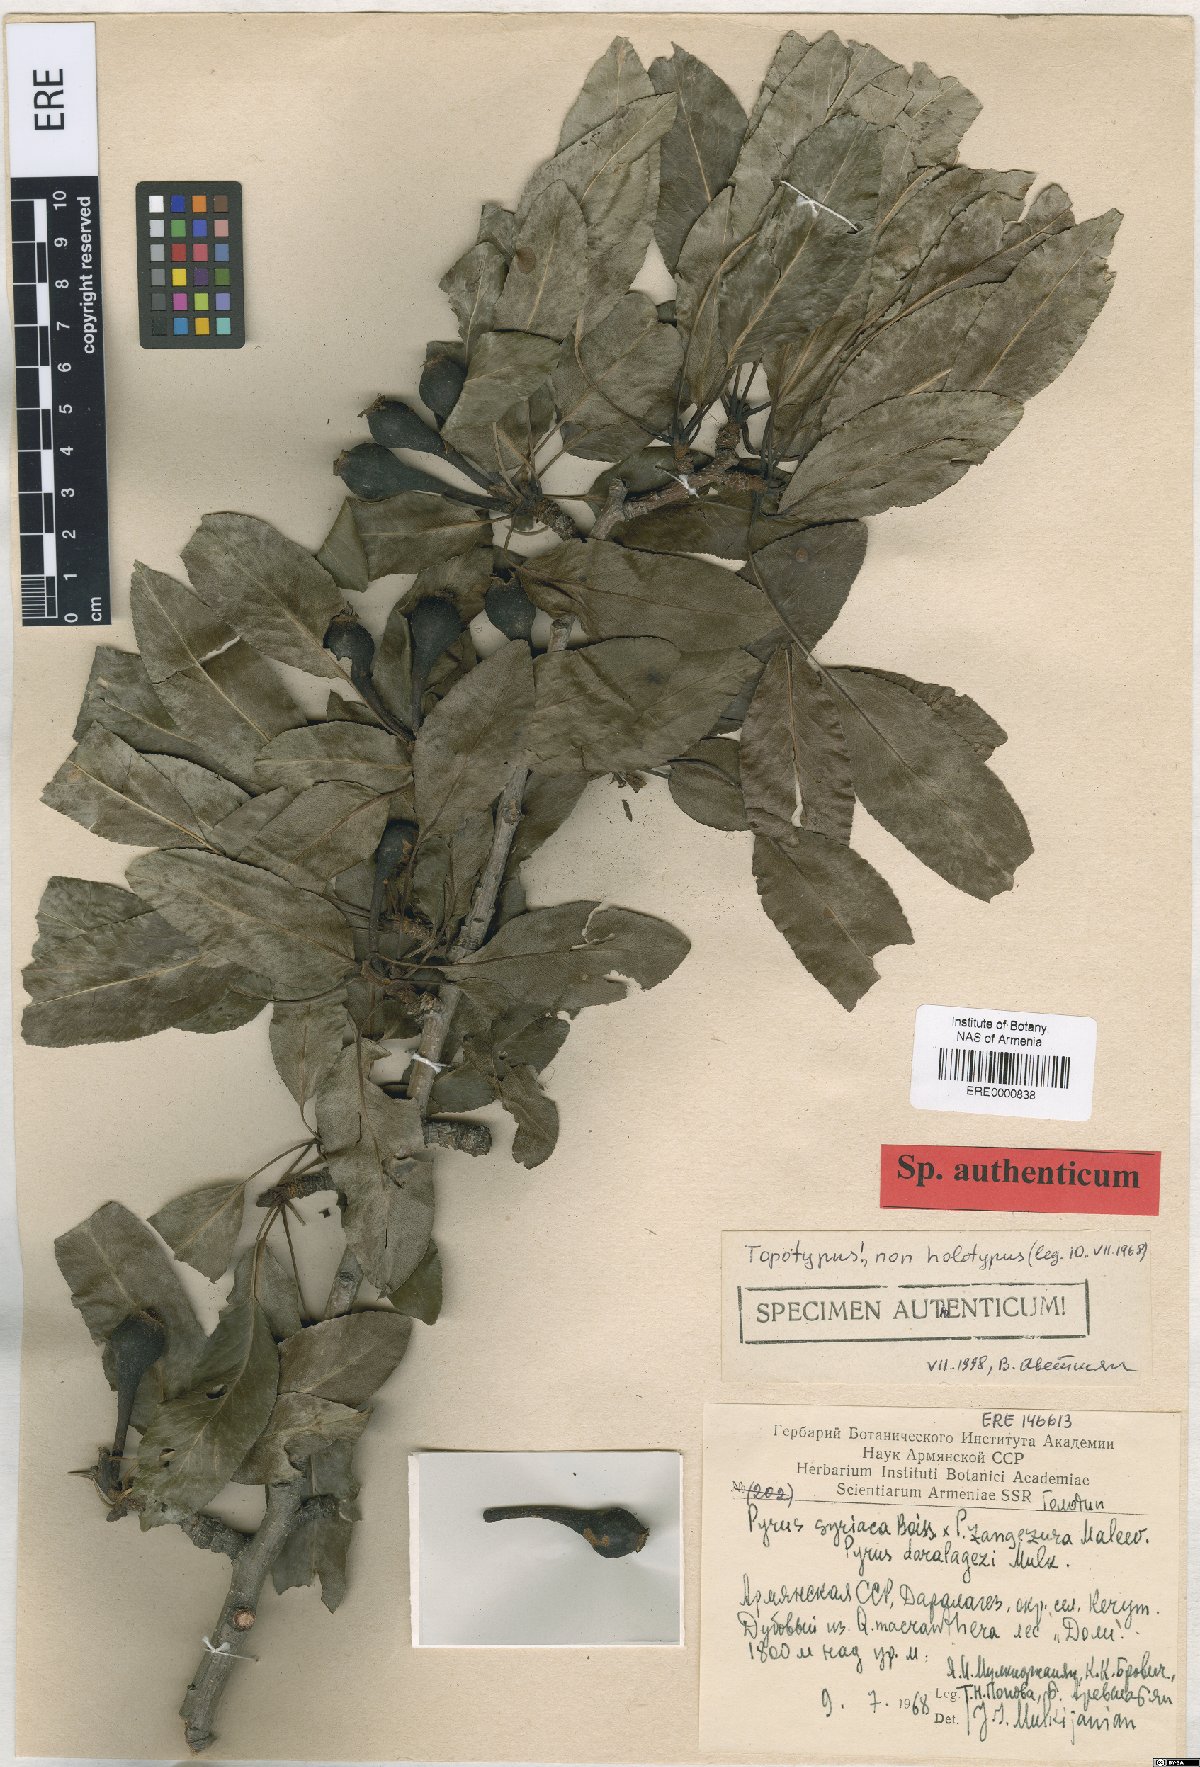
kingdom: Plantae
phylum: Tracheophyta
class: Magnoliopsida
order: Rosales
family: Rosaceae
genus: Pyrus
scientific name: Pyrus daralagezi
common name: Daralagezian pear
